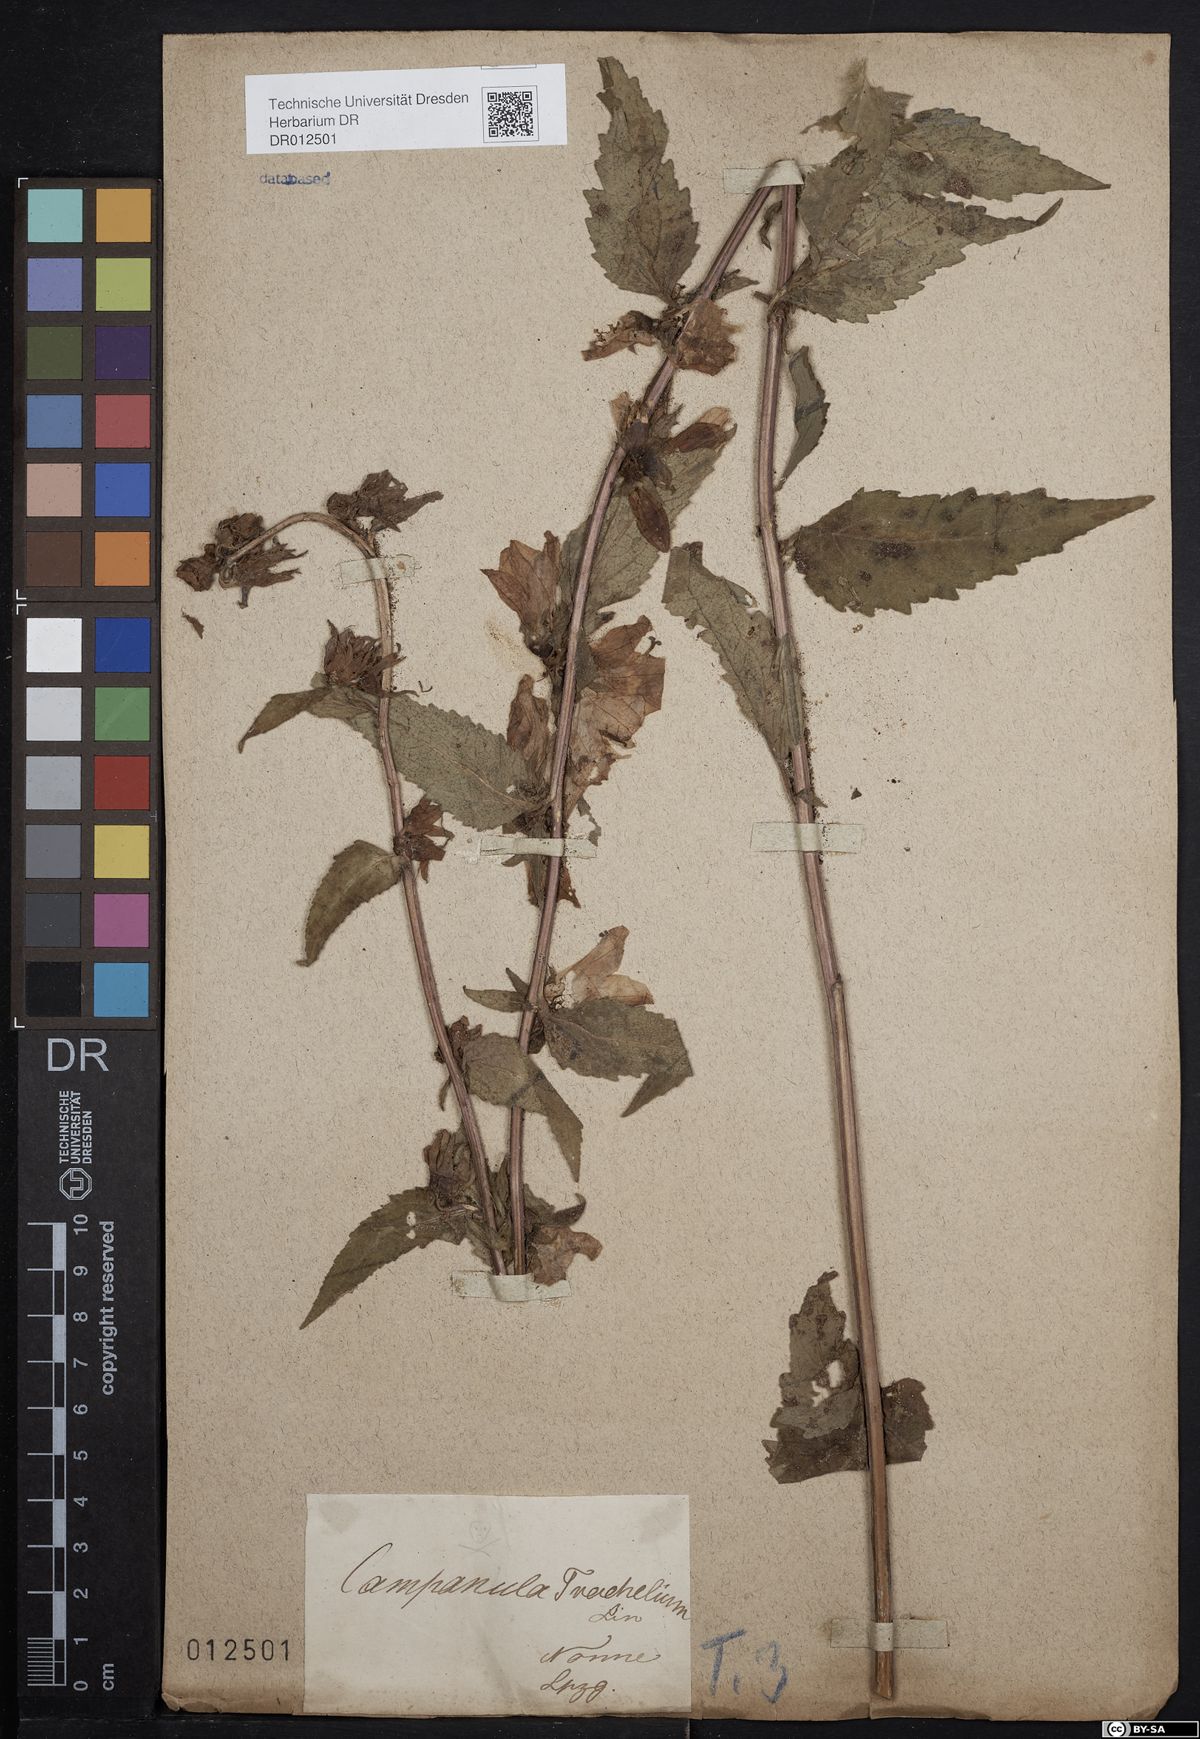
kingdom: Plantae
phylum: Tracheophyta
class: Magnoliopsida
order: Asterales
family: Campanulaceae
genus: Campanula
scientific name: Campanula trachelium
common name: Nettle-leaved bellflower
